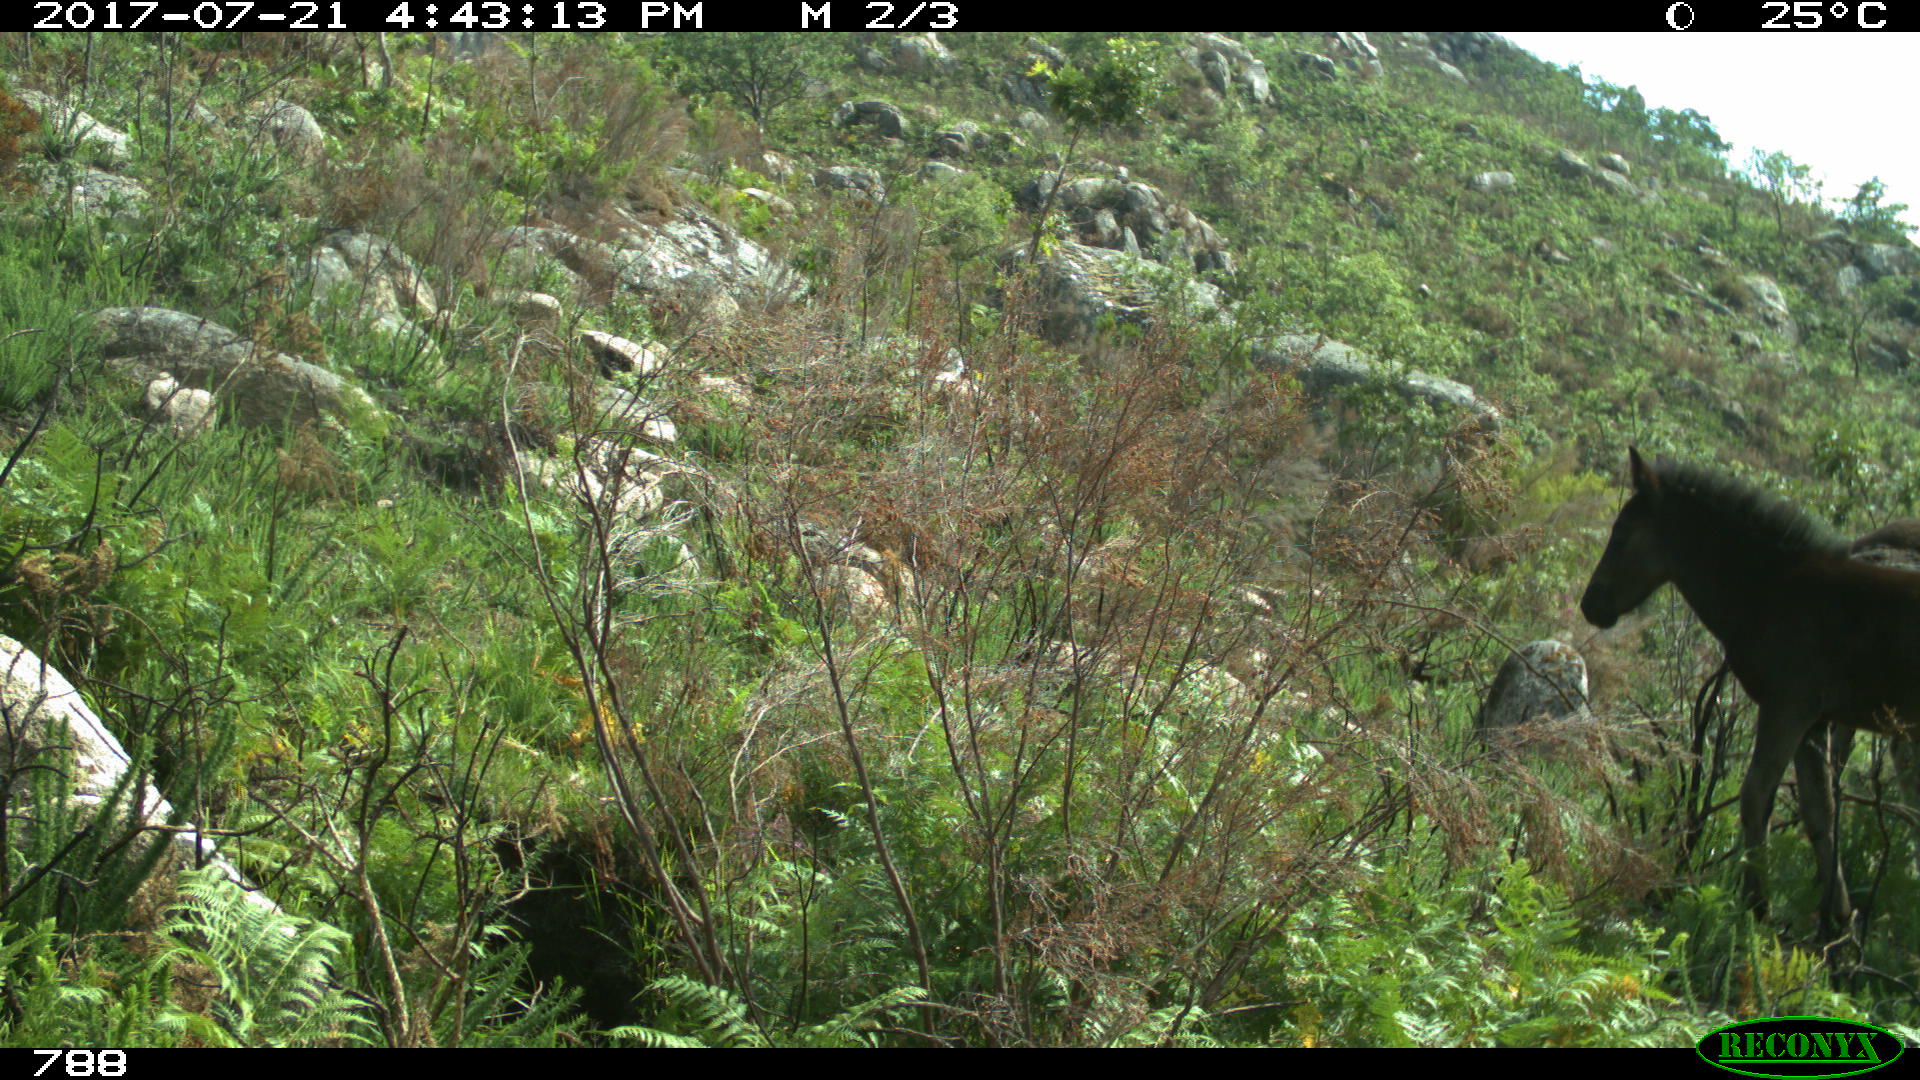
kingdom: Animalia
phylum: Chordata
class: Mammalia
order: Perissodactyla
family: Equidae
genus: Equus
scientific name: Equus caballus
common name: Horse
